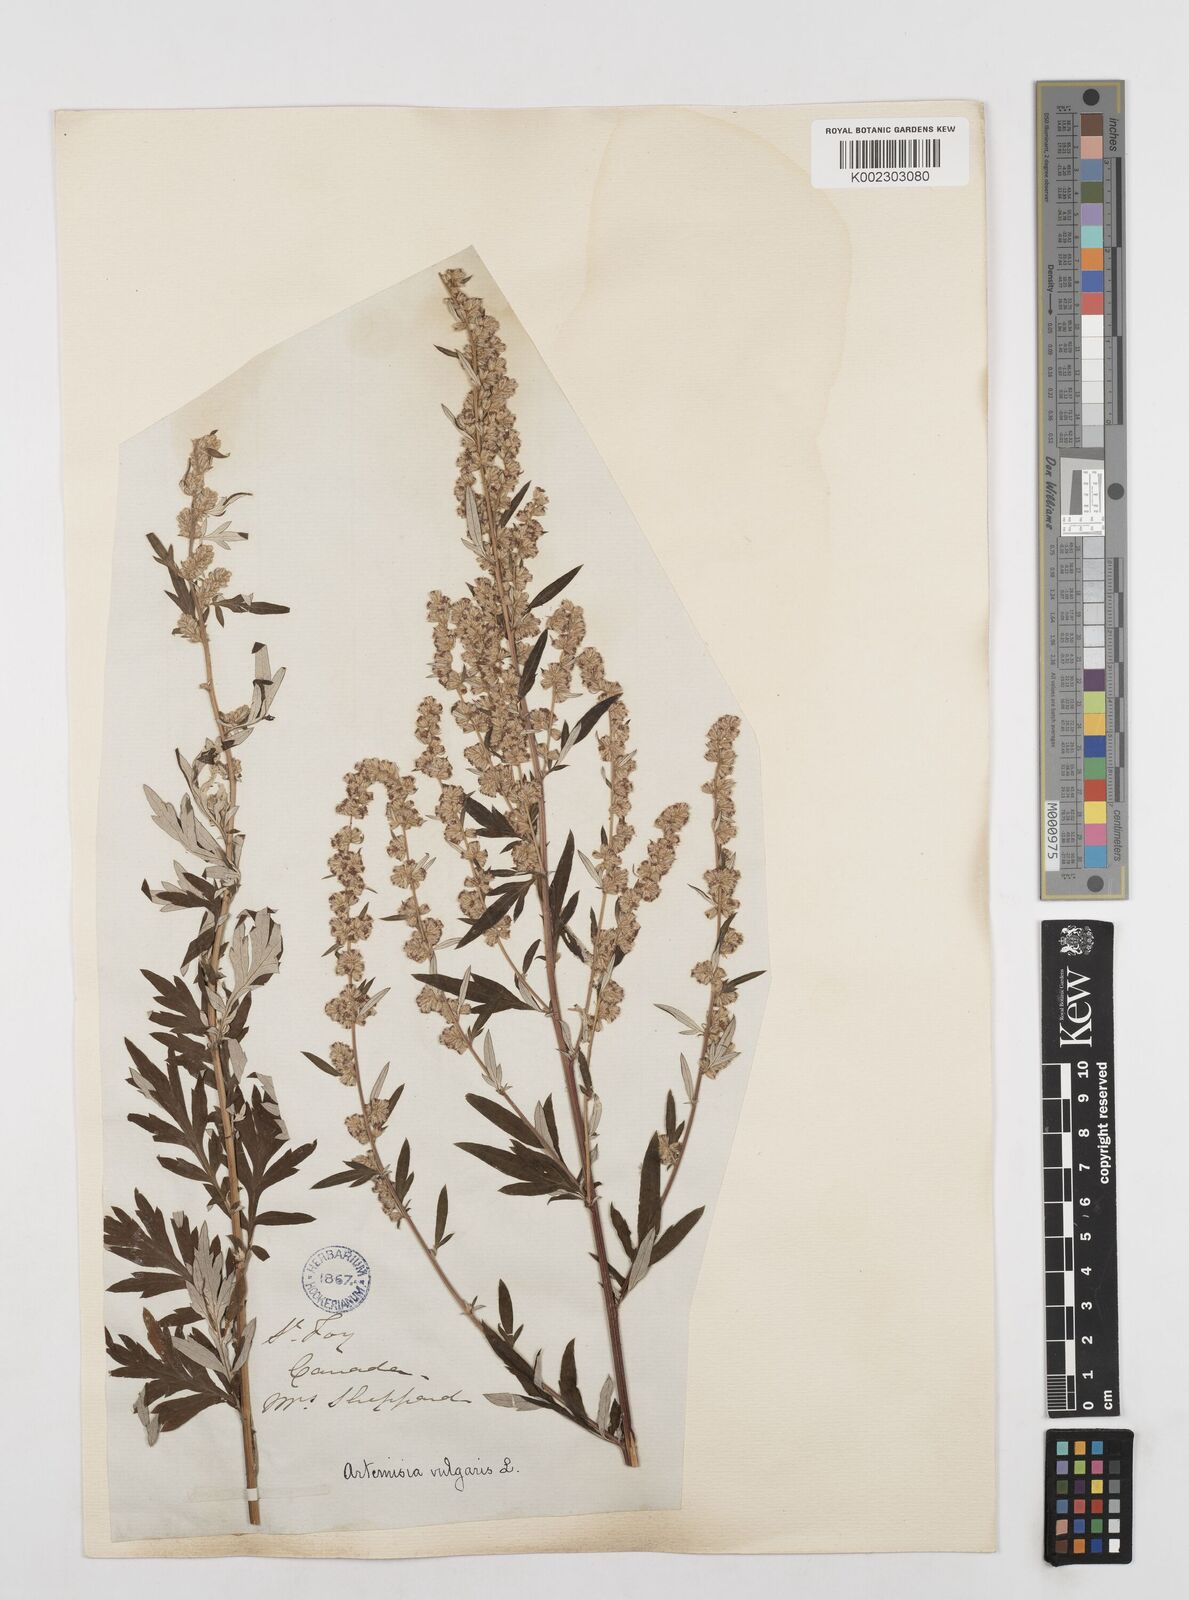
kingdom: Plantae
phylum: Tracheophyta
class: Magnoliopsida
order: Asterales
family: Asteraceae
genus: Artemisia
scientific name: Artemisia vulgaris
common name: Mugwort
